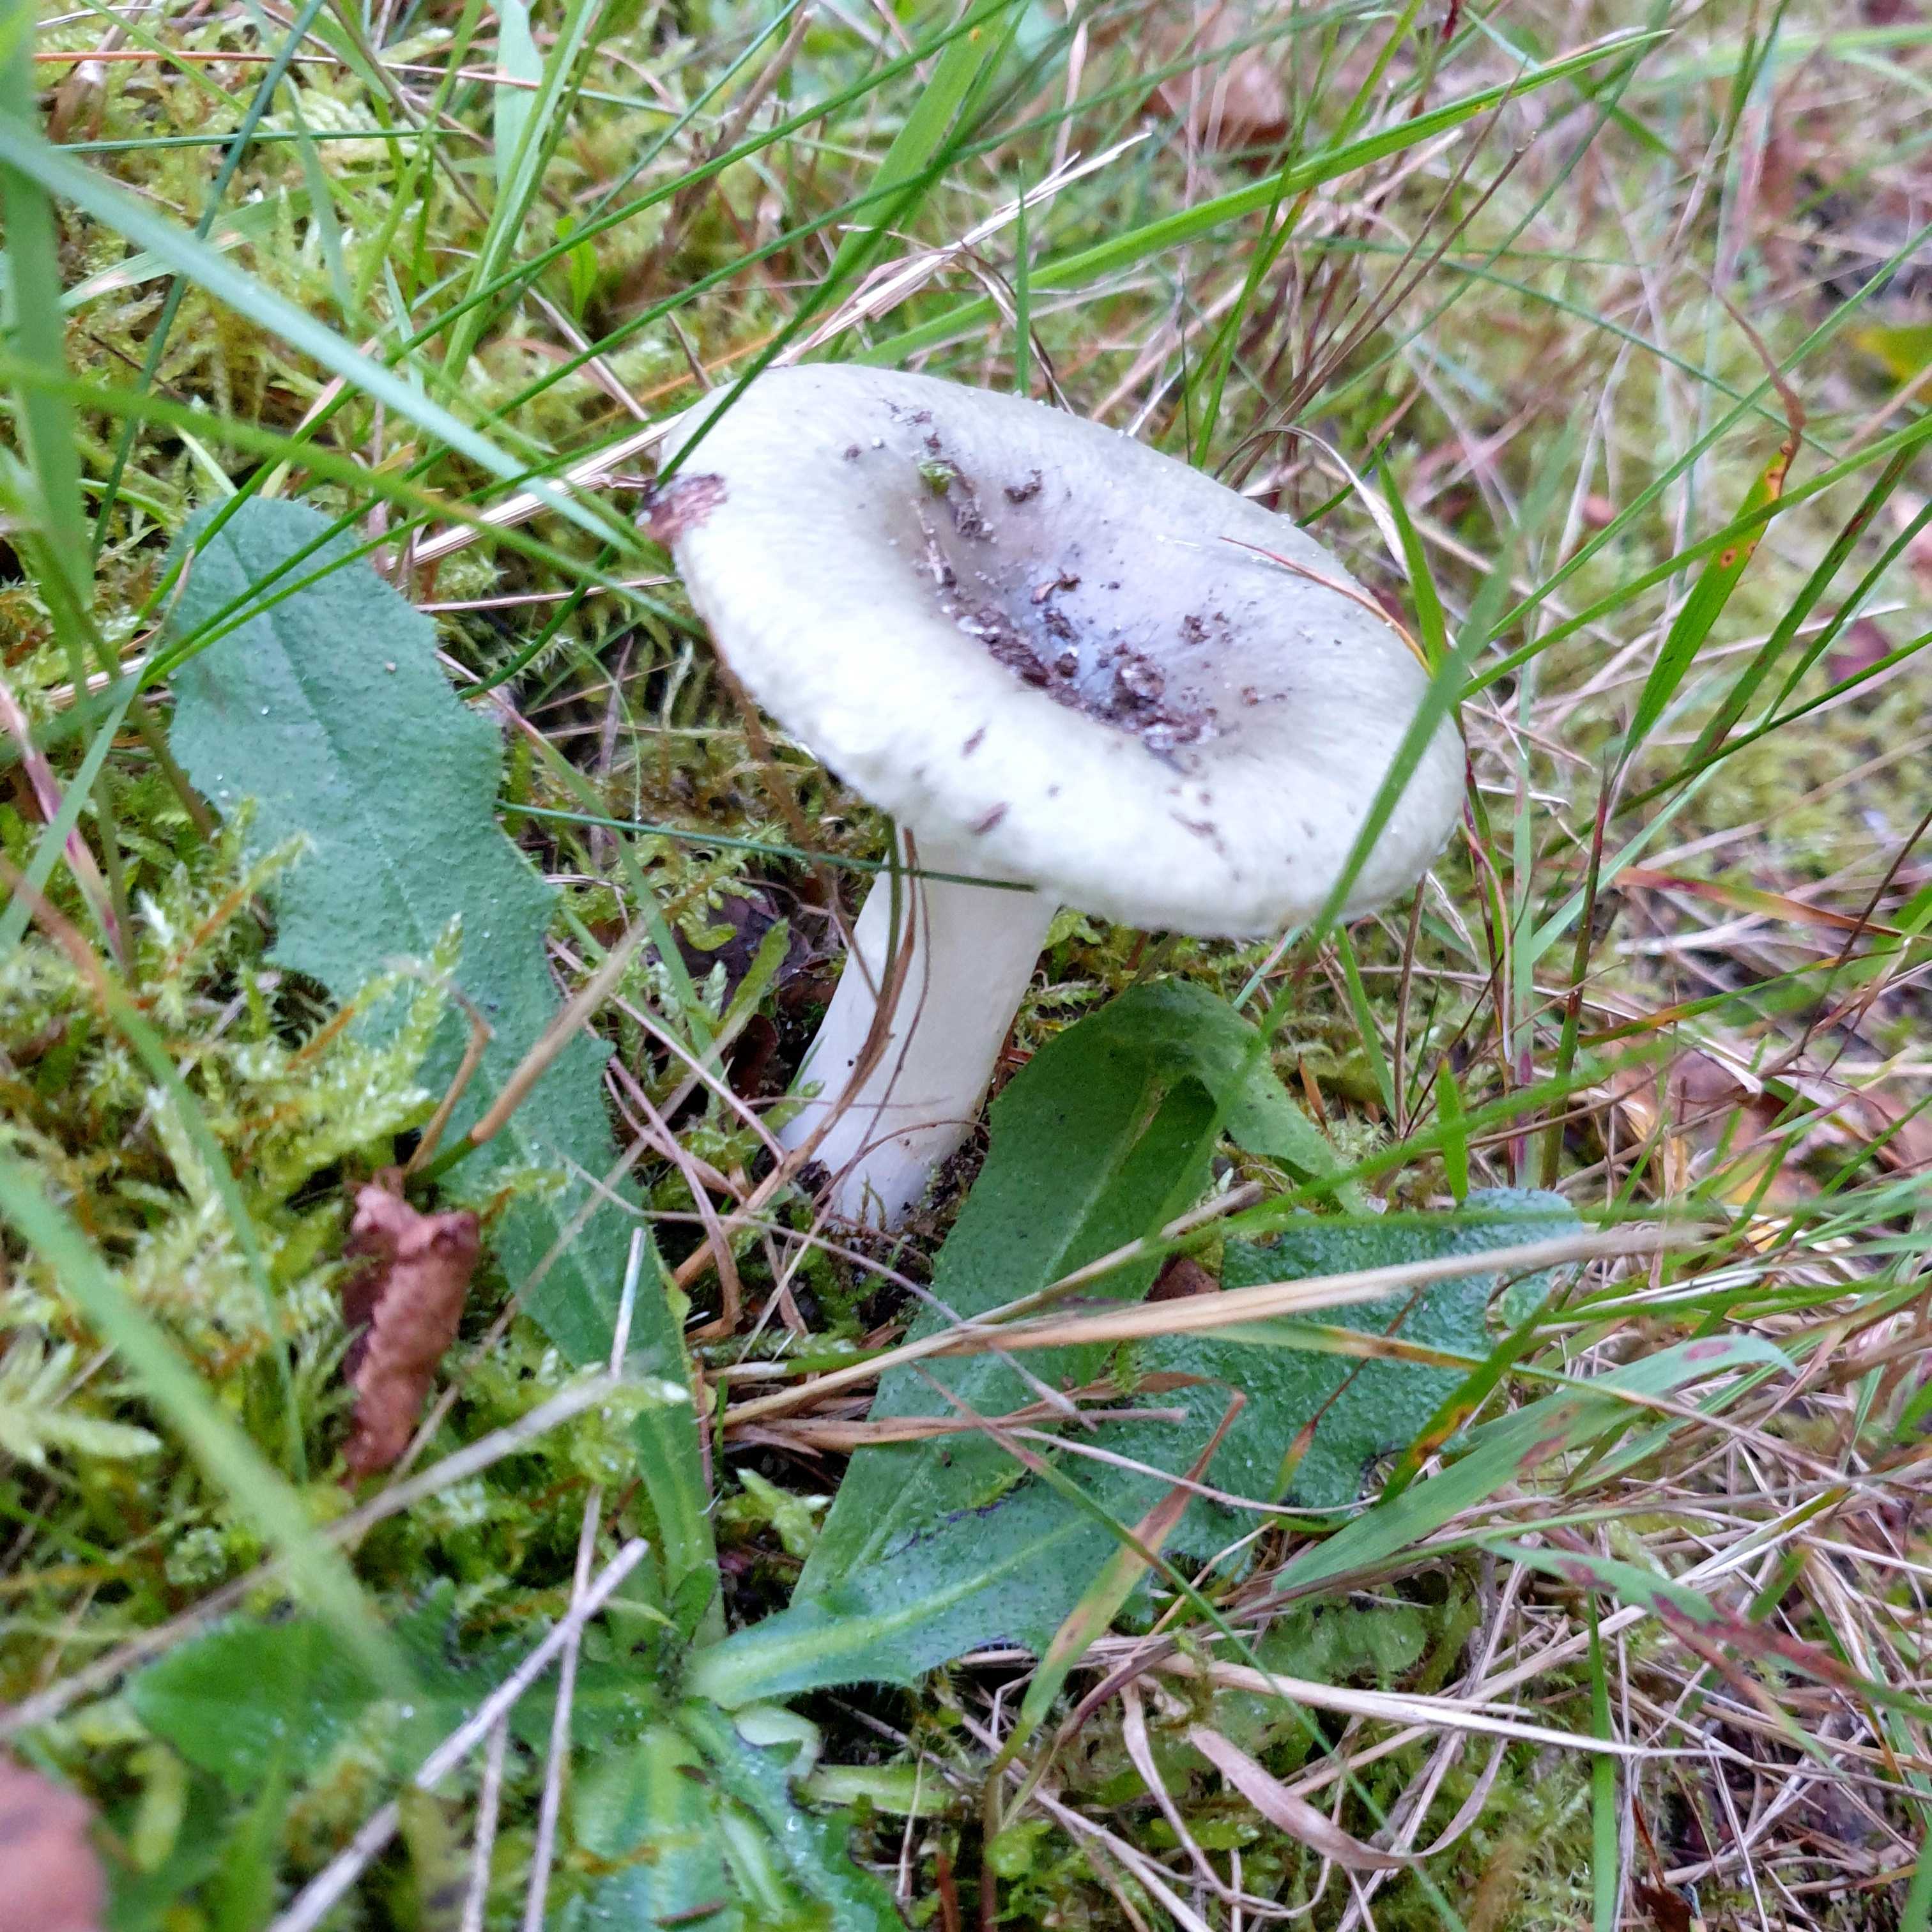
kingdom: Fungi
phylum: Basidiomycota
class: Agaricomycetes
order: Russulales
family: Russulaceae
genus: Russula
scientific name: Russula
